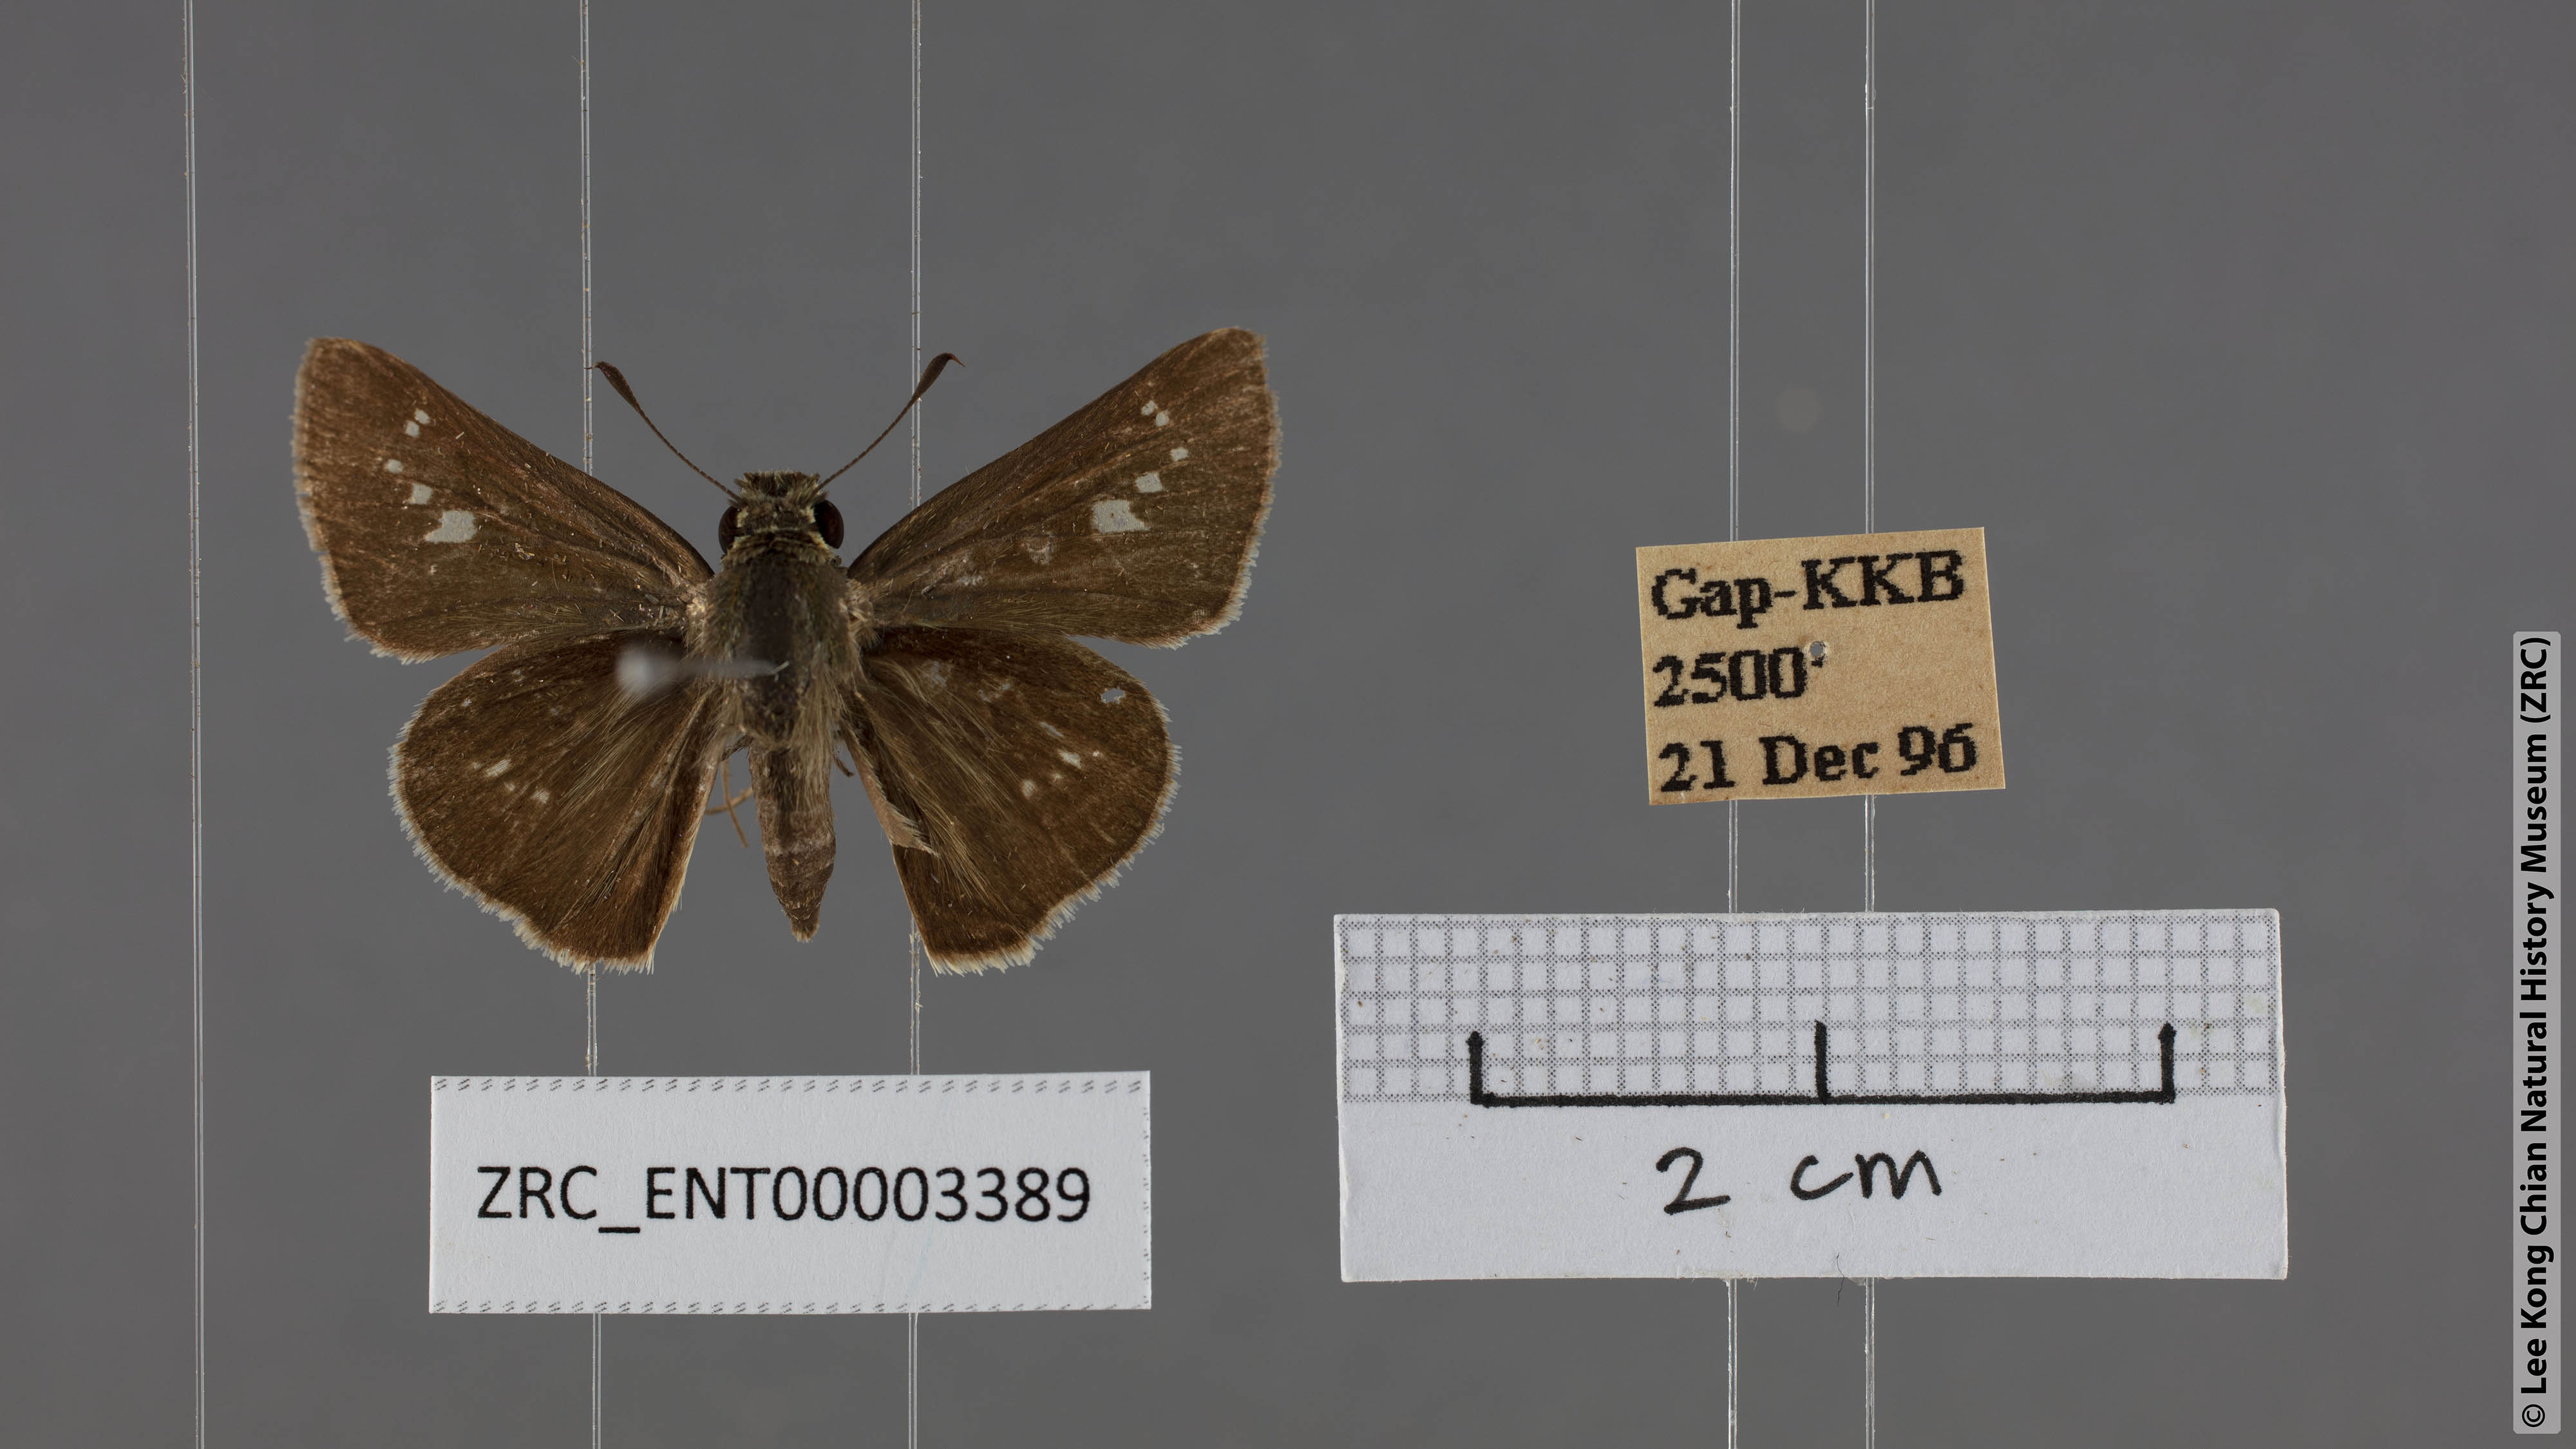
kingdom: Animalia
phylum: Arthropoda
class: Insecta
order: Lepidoptera
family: Hesperiidae
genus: Parnara
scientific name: Parnara naso
